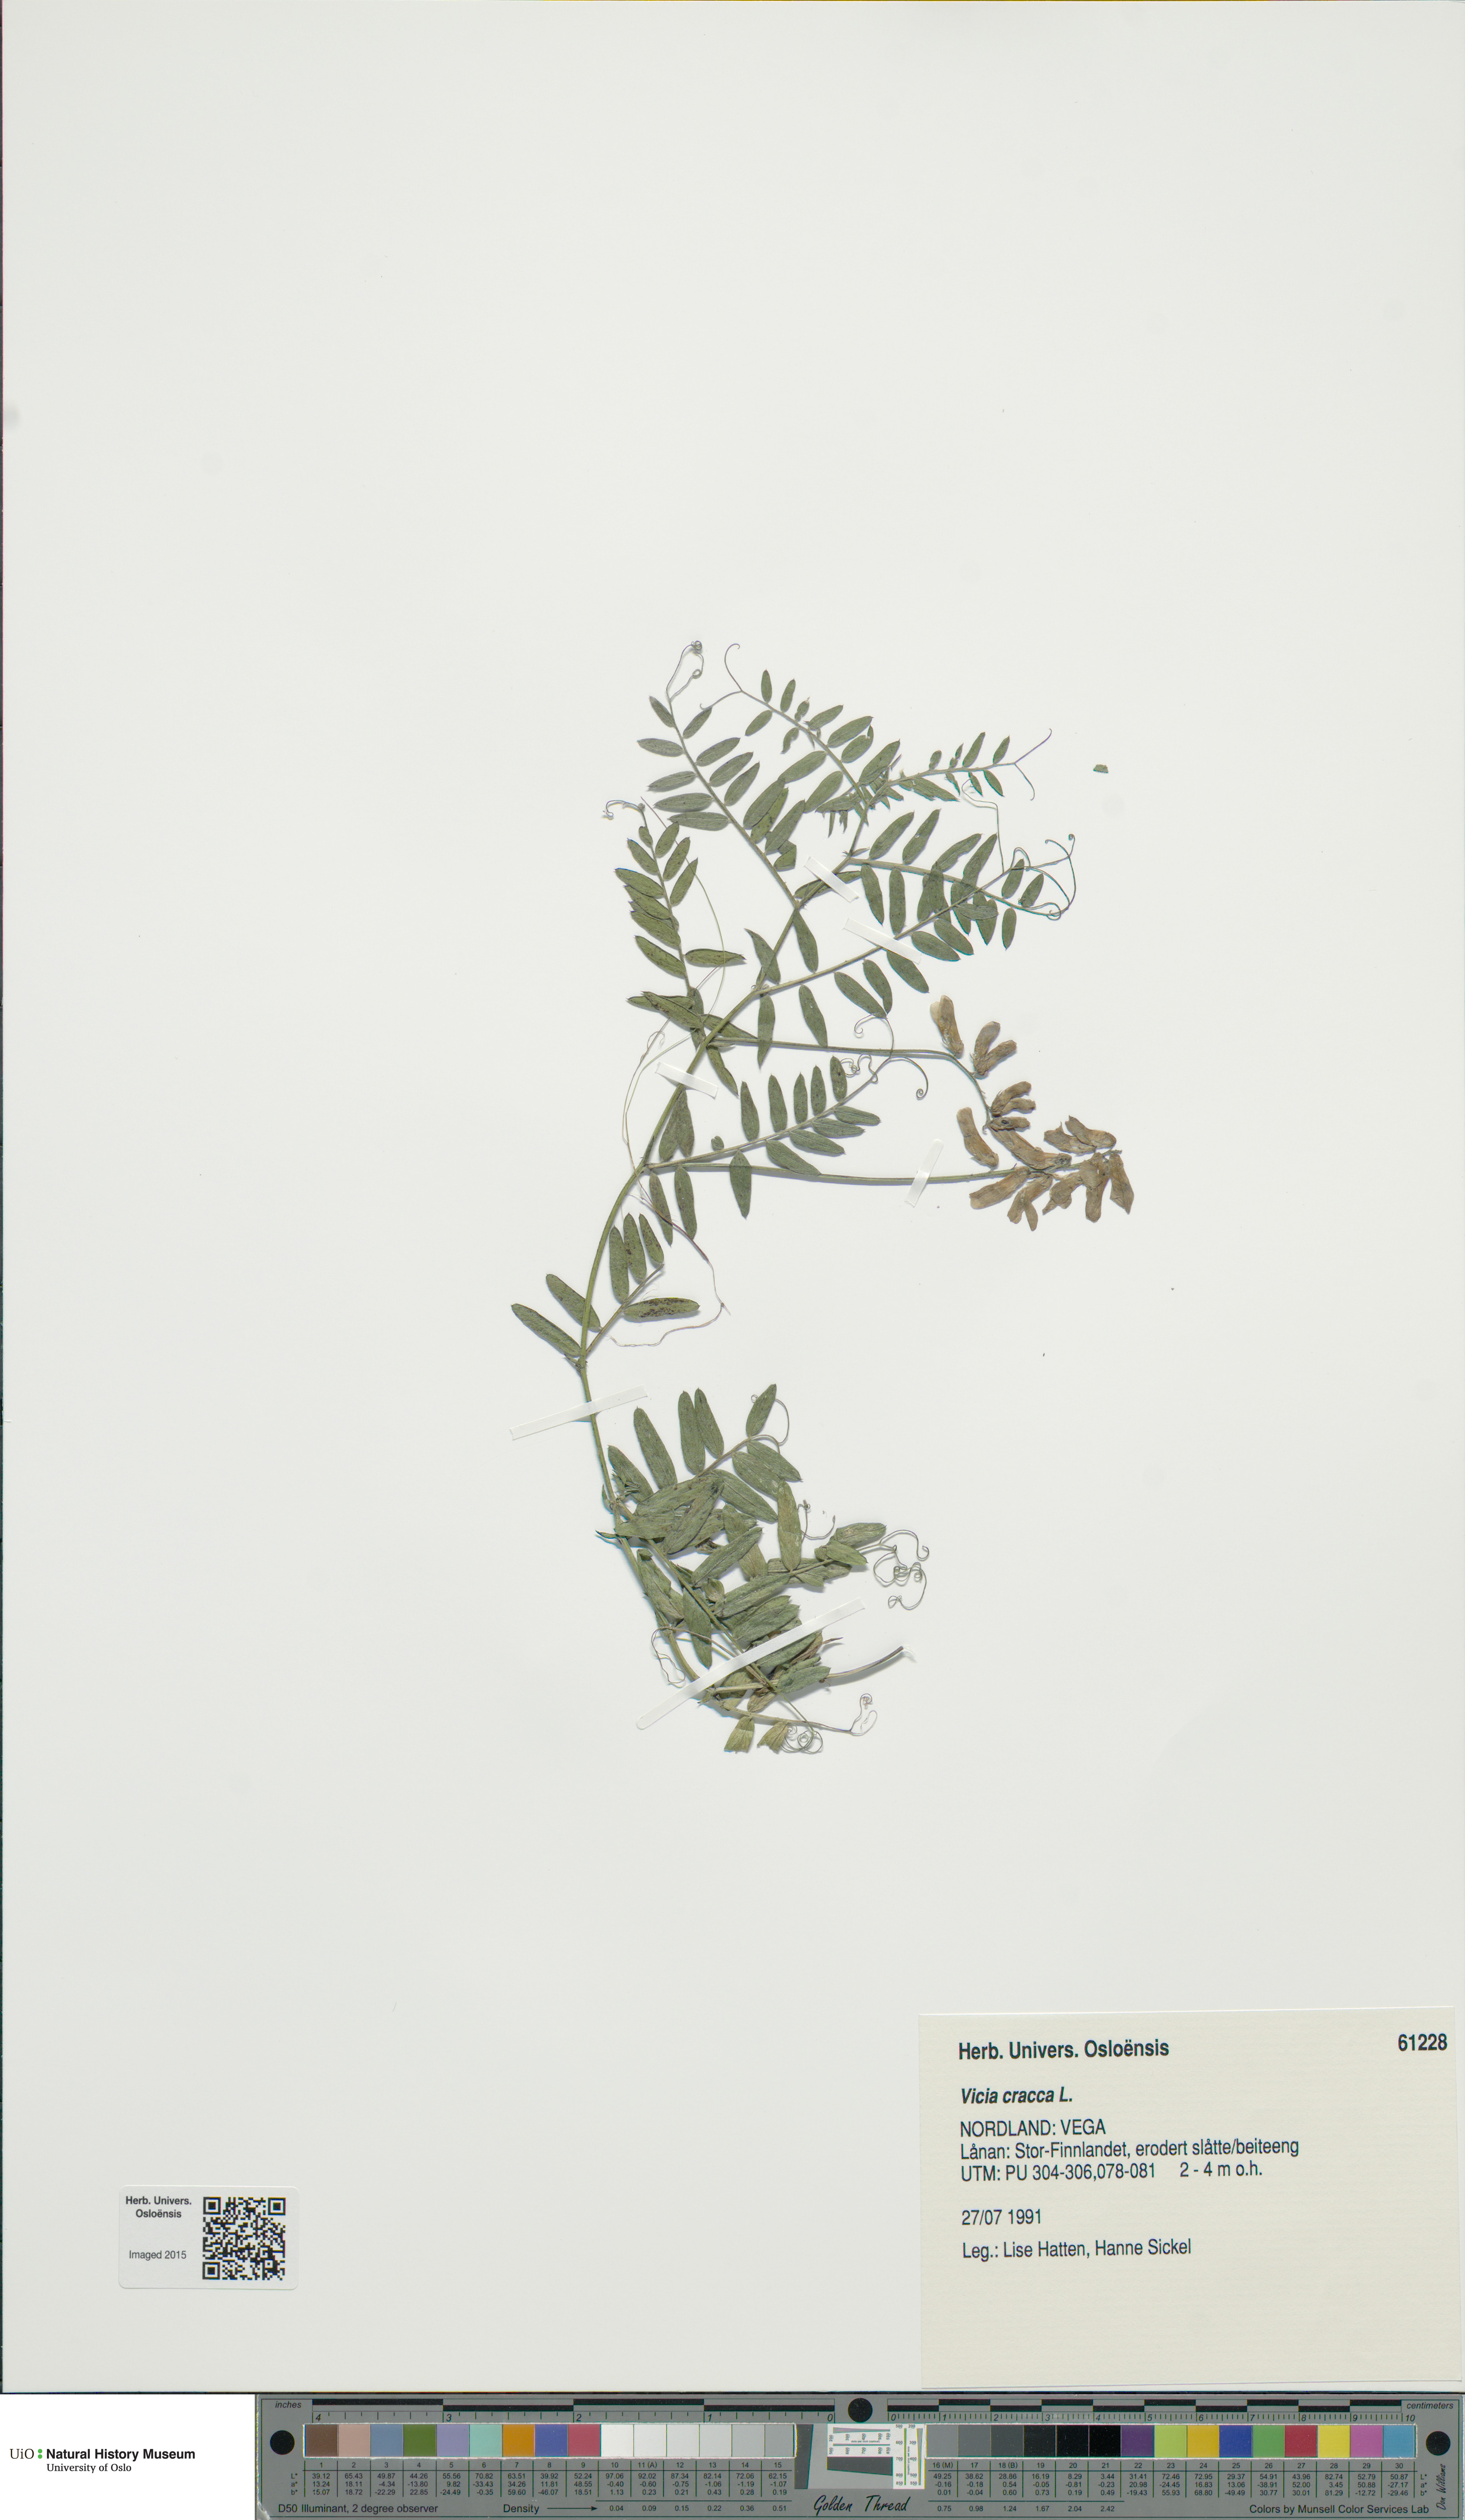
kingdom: Plantae
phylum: Tracheophyta
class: Magnoliopsida
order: Fabales
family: Fabaceae
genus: Vicia
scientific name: Vicia cracca
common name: Bird vetch
